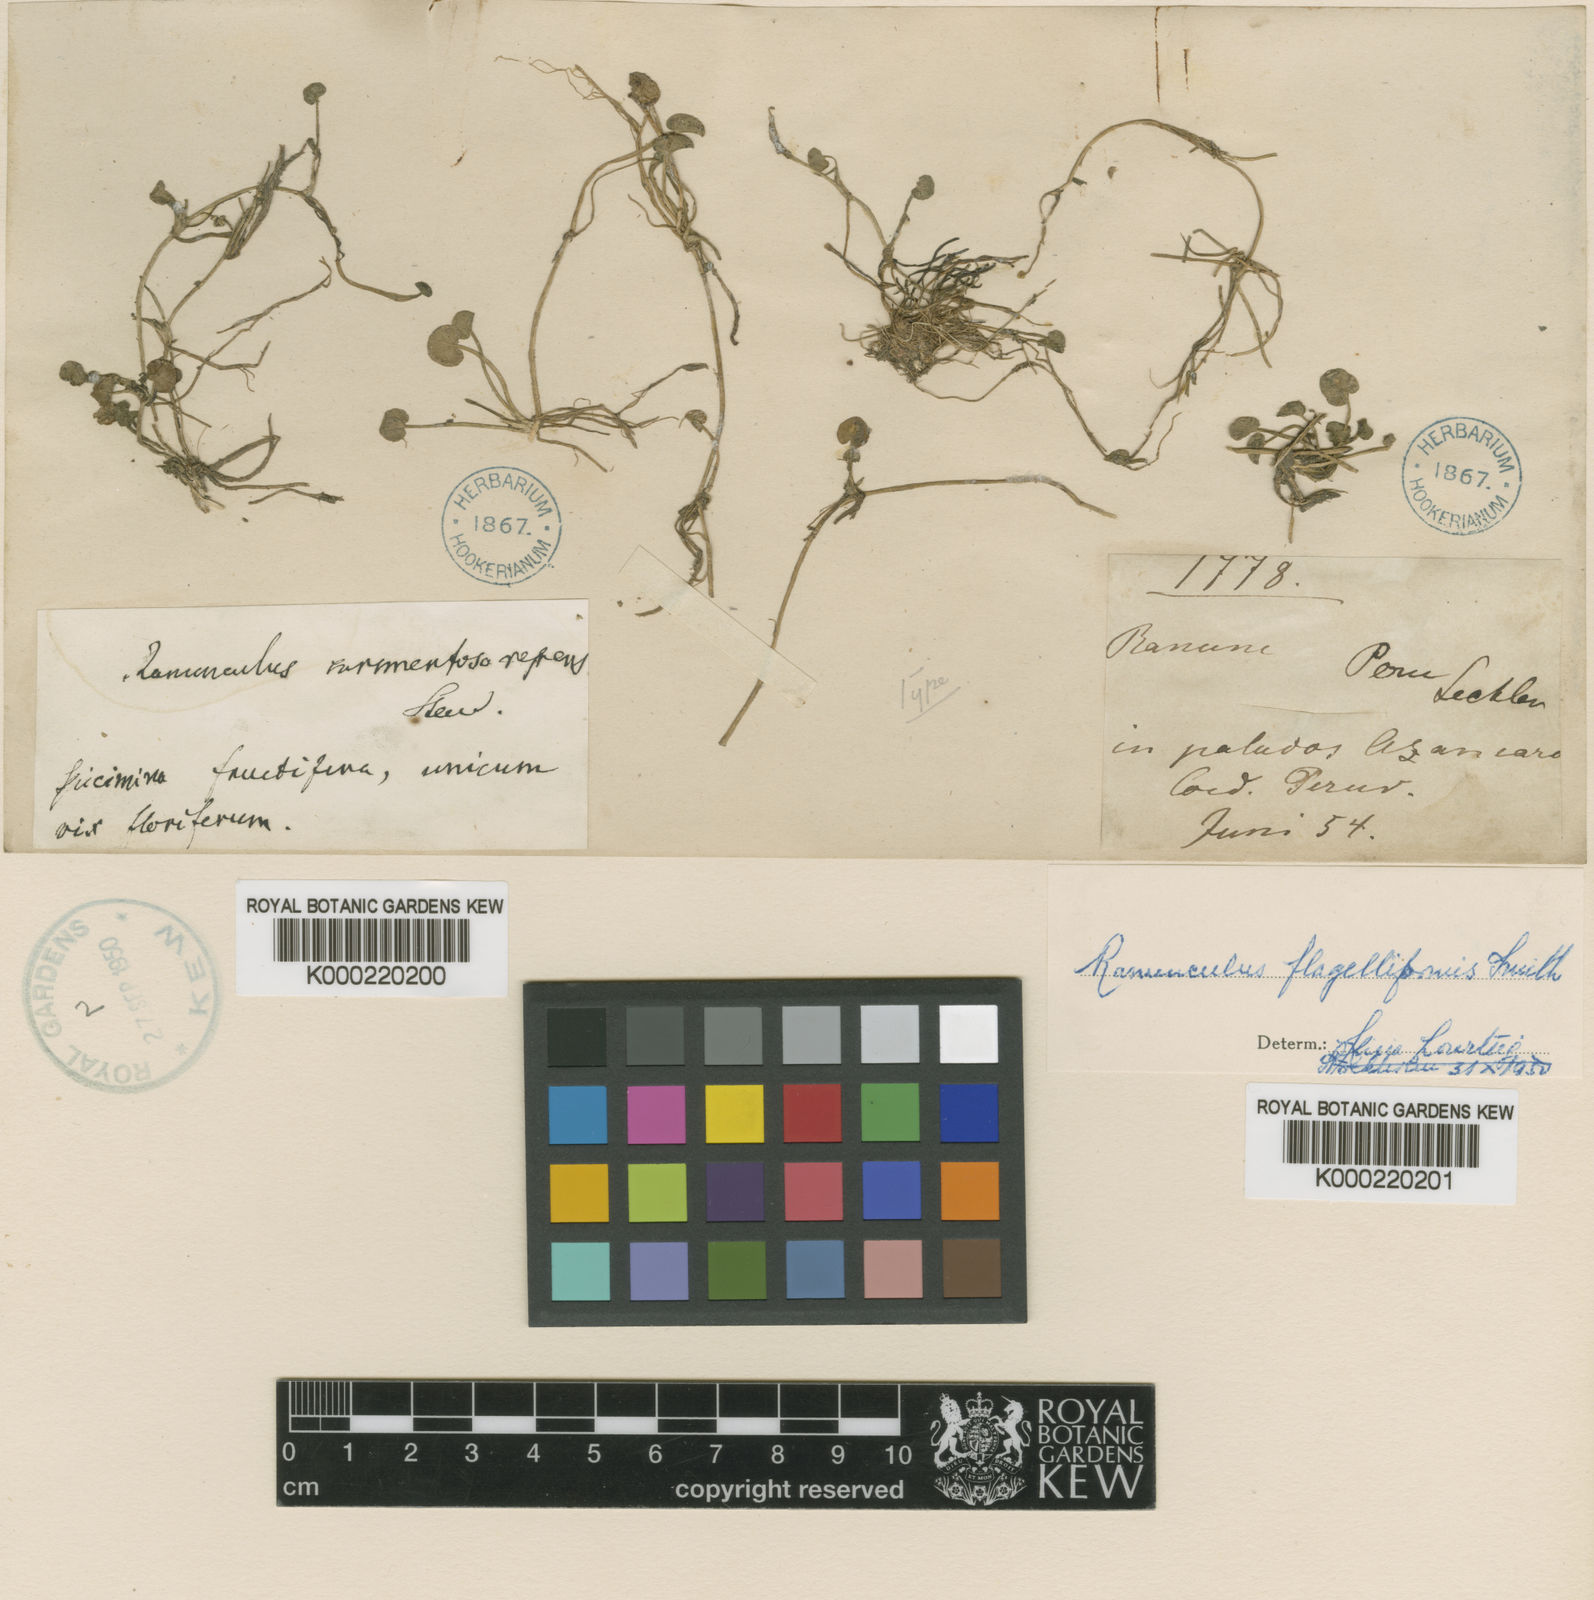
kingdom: Plantae
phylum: Tracheophyta
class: Magnoliopsida
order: Ranunculales
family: Ranunculaceae
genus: Ranunculus
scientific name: Ranunculus flagelliformis
